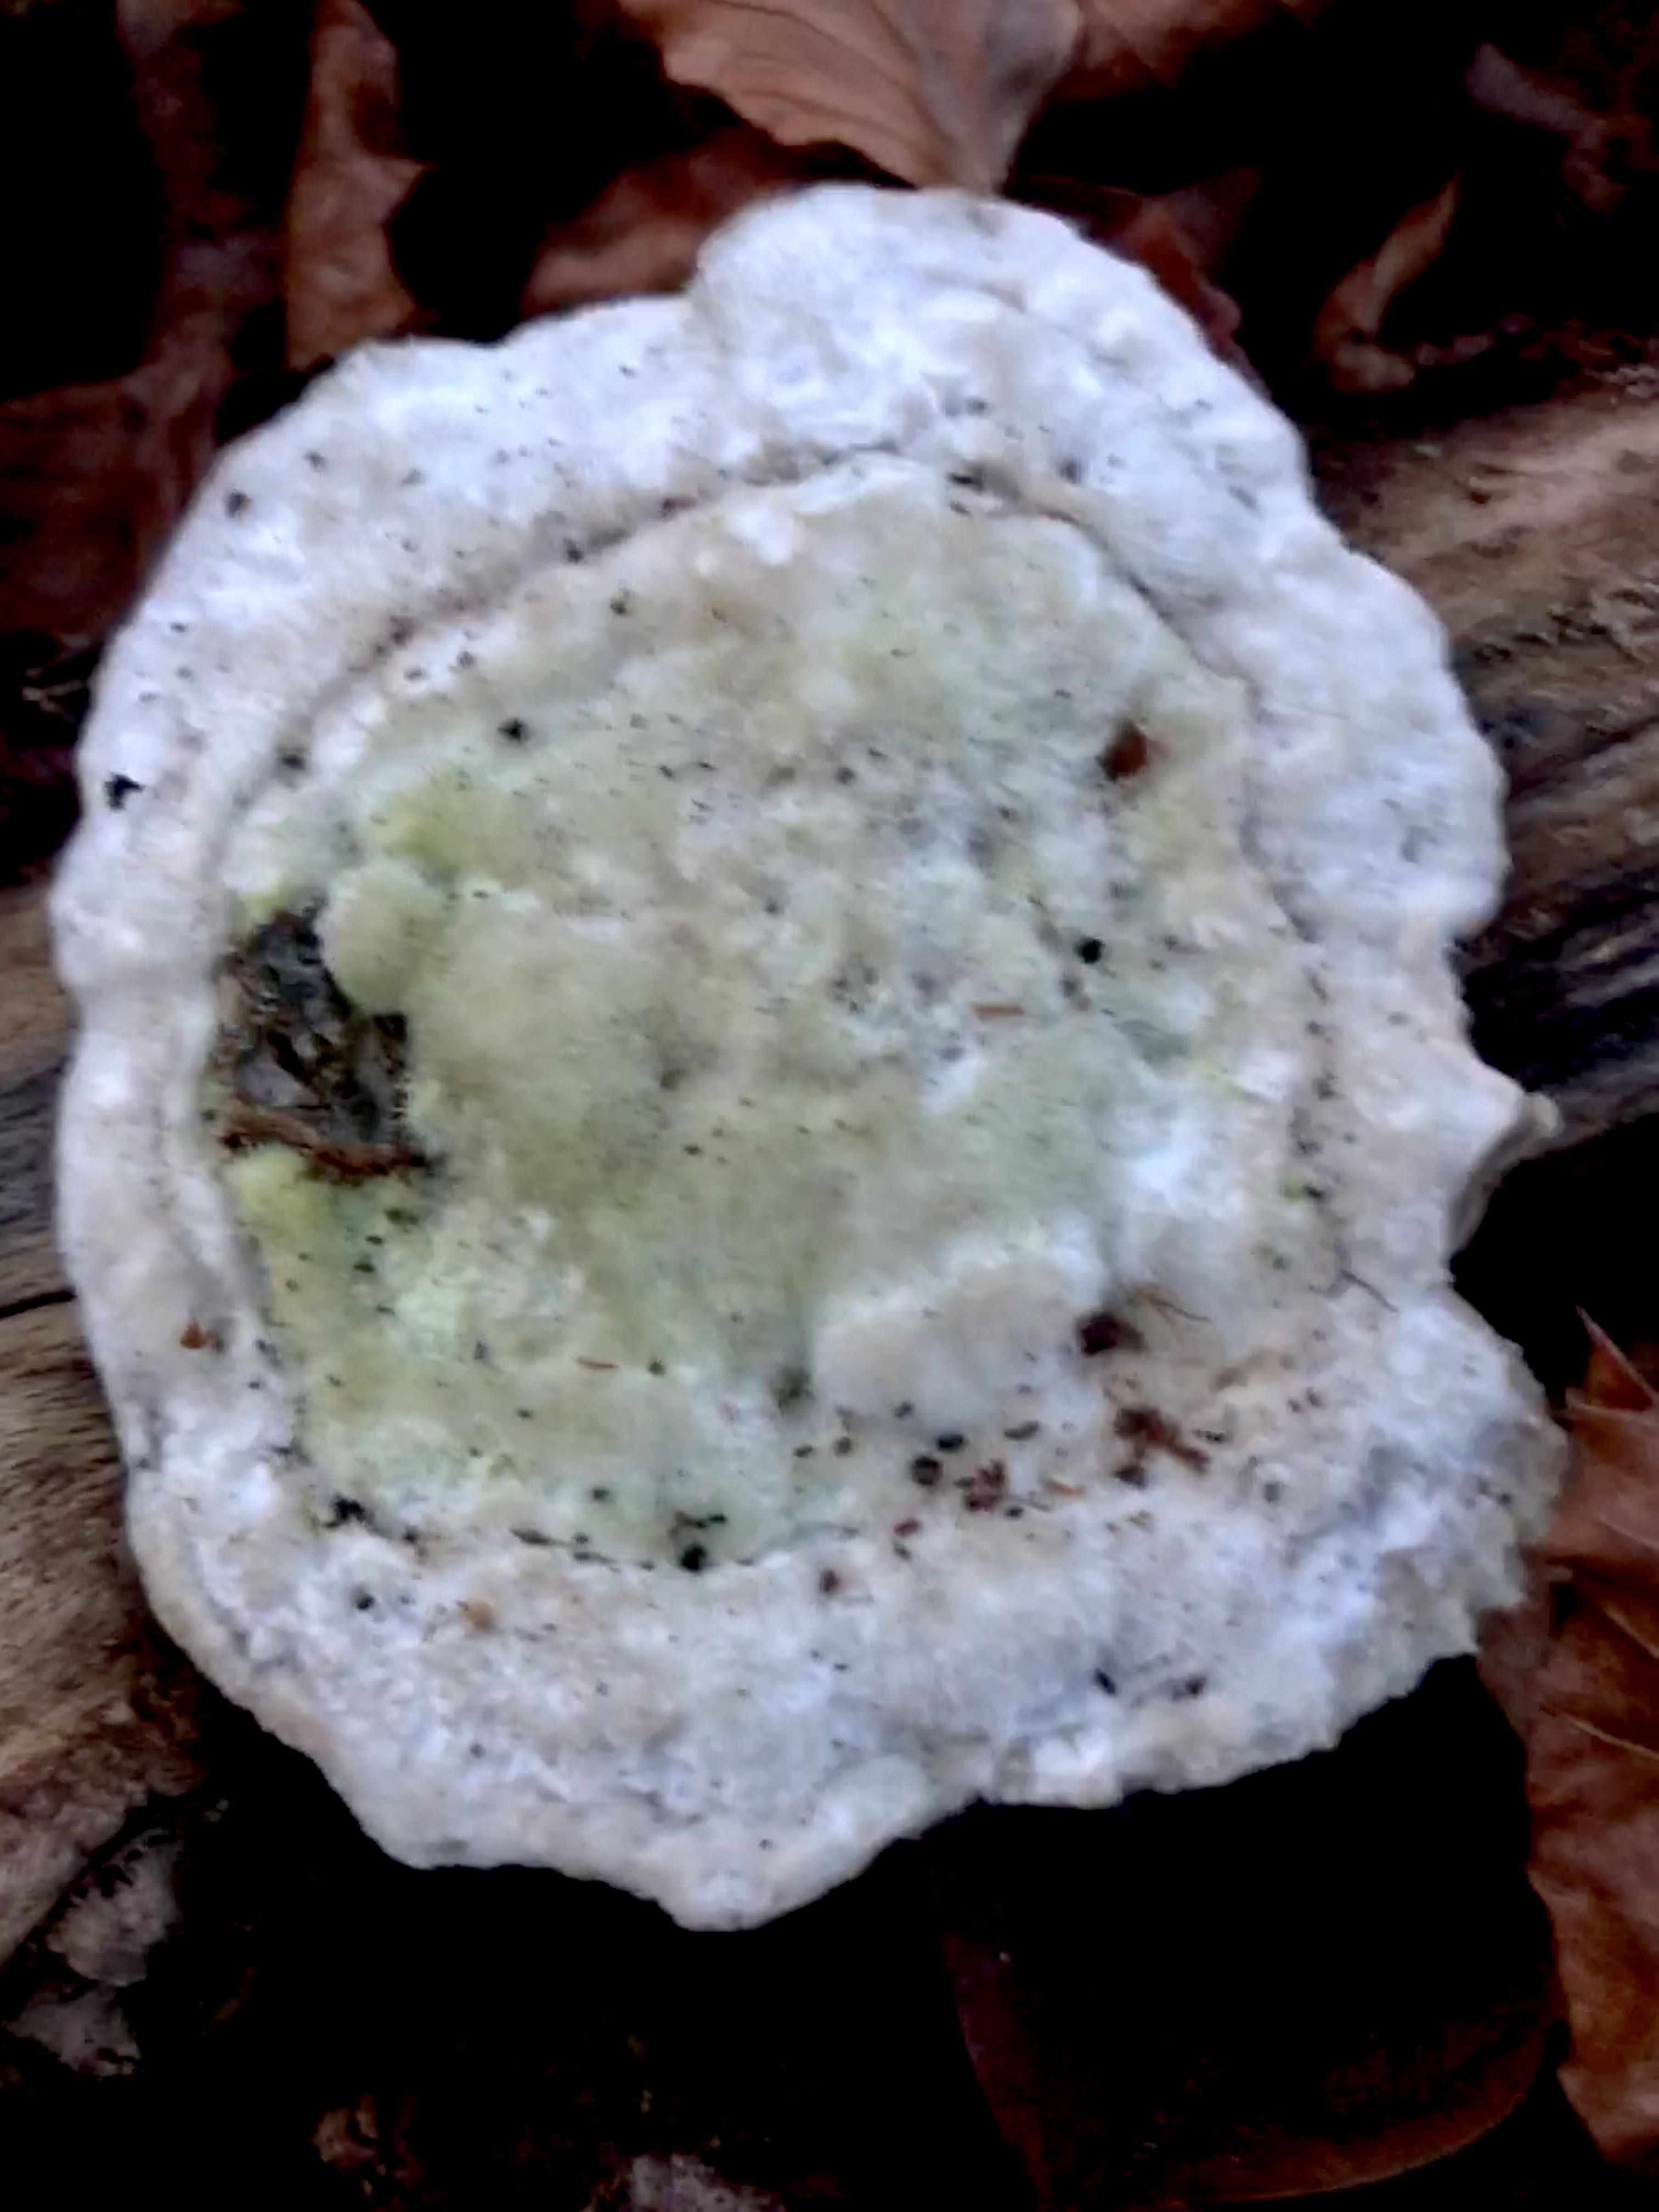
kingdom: Fungi
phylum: Basidiomycota
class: Agaricomycetes
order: Polyporales
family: Polyporaceae
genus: Trametes
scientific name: Trametes hirsuta
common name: håret læderporesvamp
